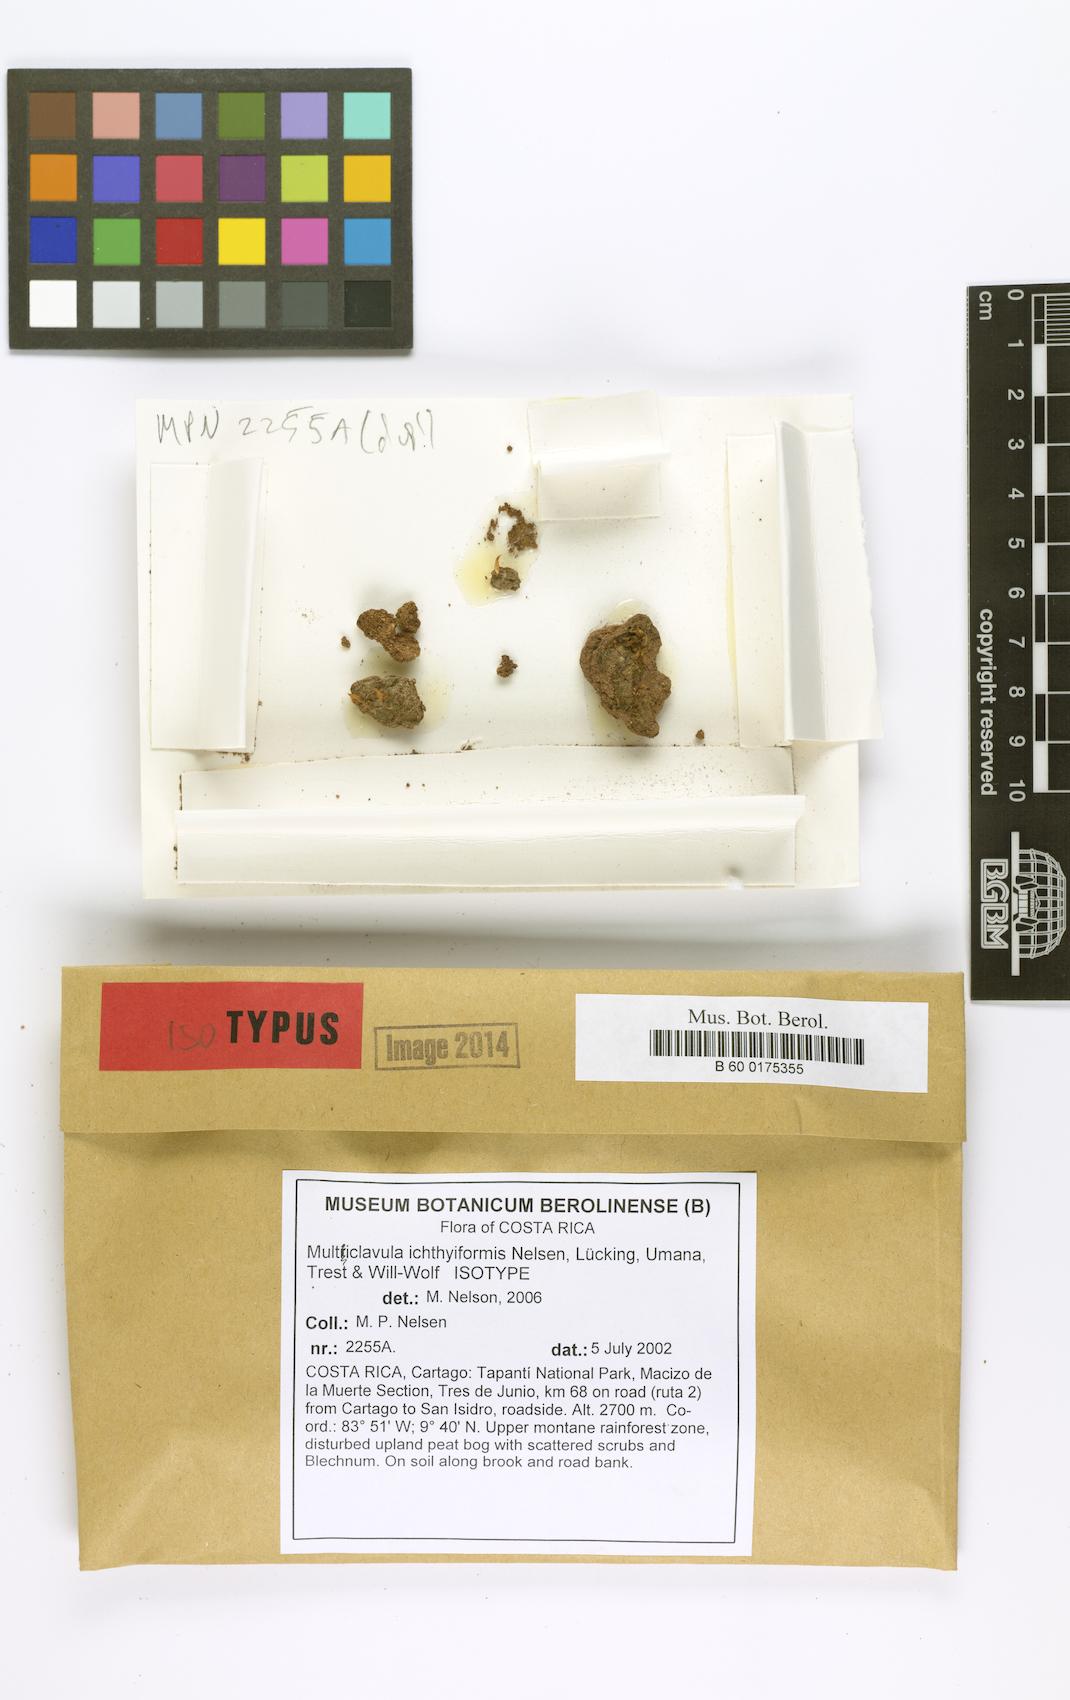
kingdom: Fungi
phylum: Basidiomycota
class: Agaricomycetes
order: Cantharellales
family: Hydnaceae
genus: Multiclavula
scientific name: Multiclavula ichthyiformis
